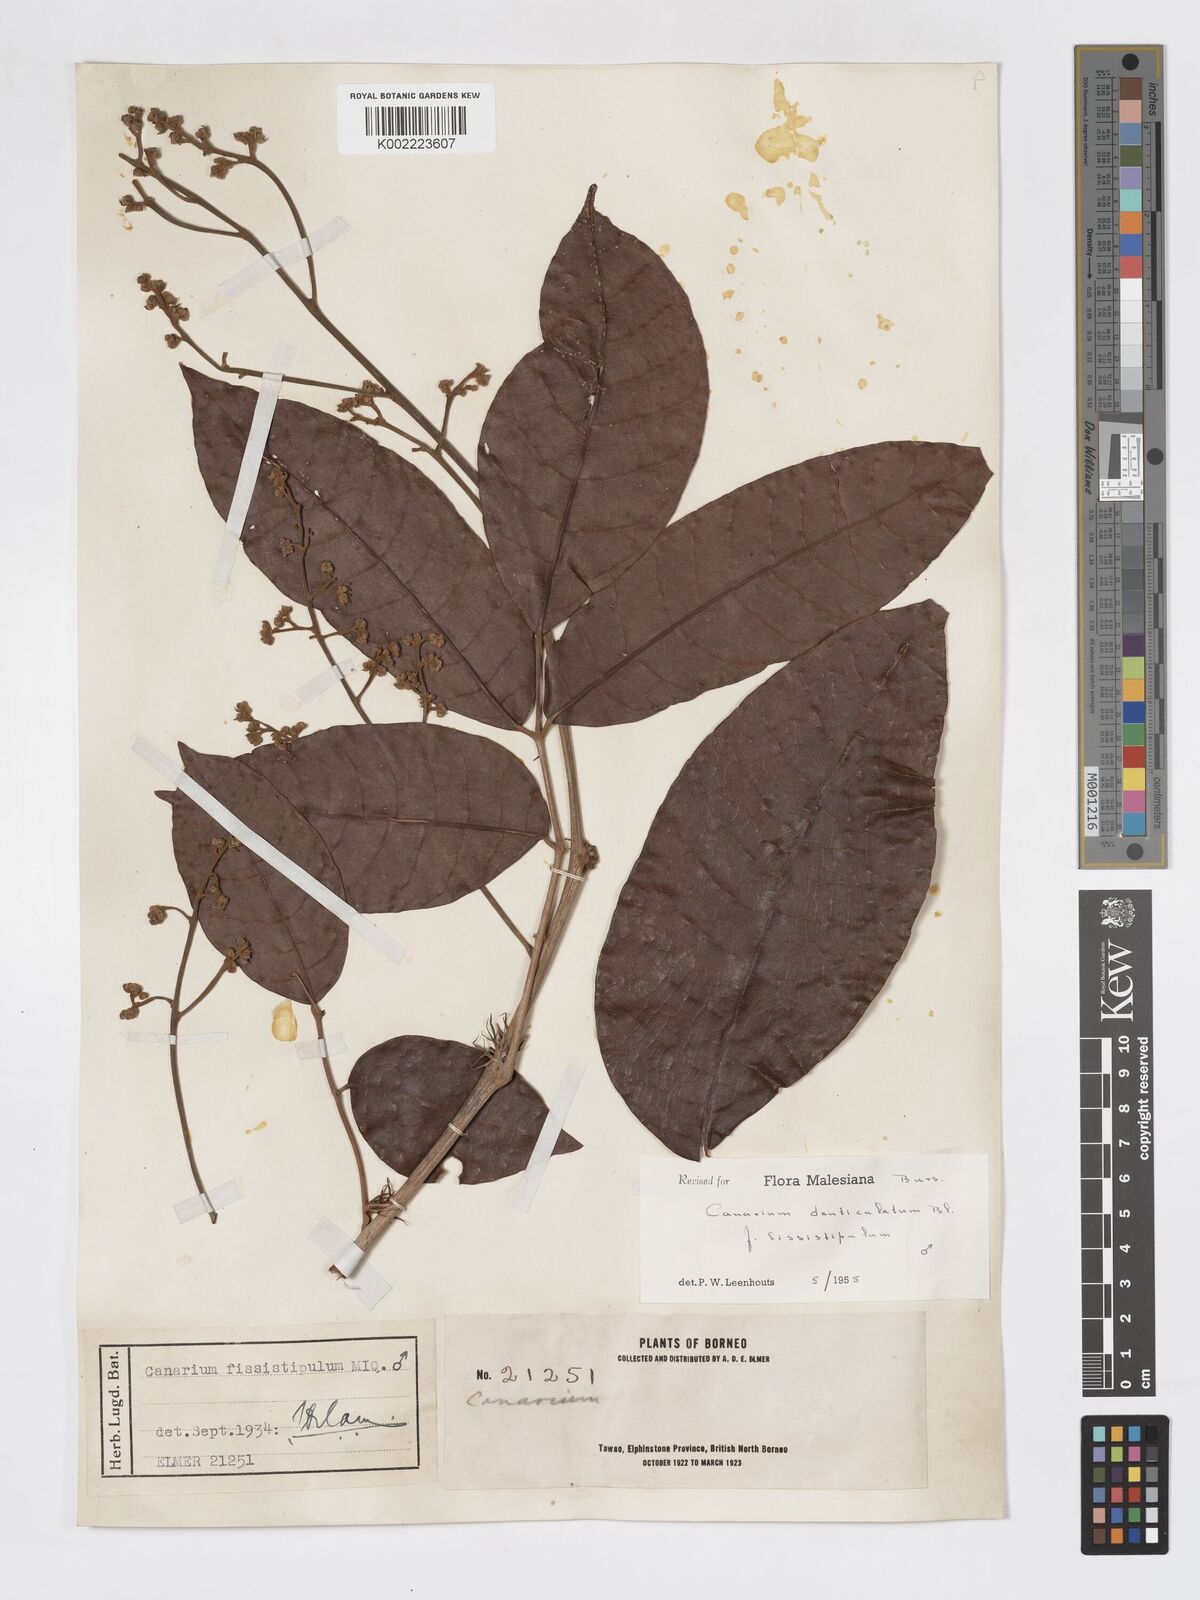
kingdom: Plantae
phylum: Tracheophyta
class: Magnoliopsida
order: Sapindales
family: Burseraceae
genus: Canarium
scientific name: Canarium denticulatum
